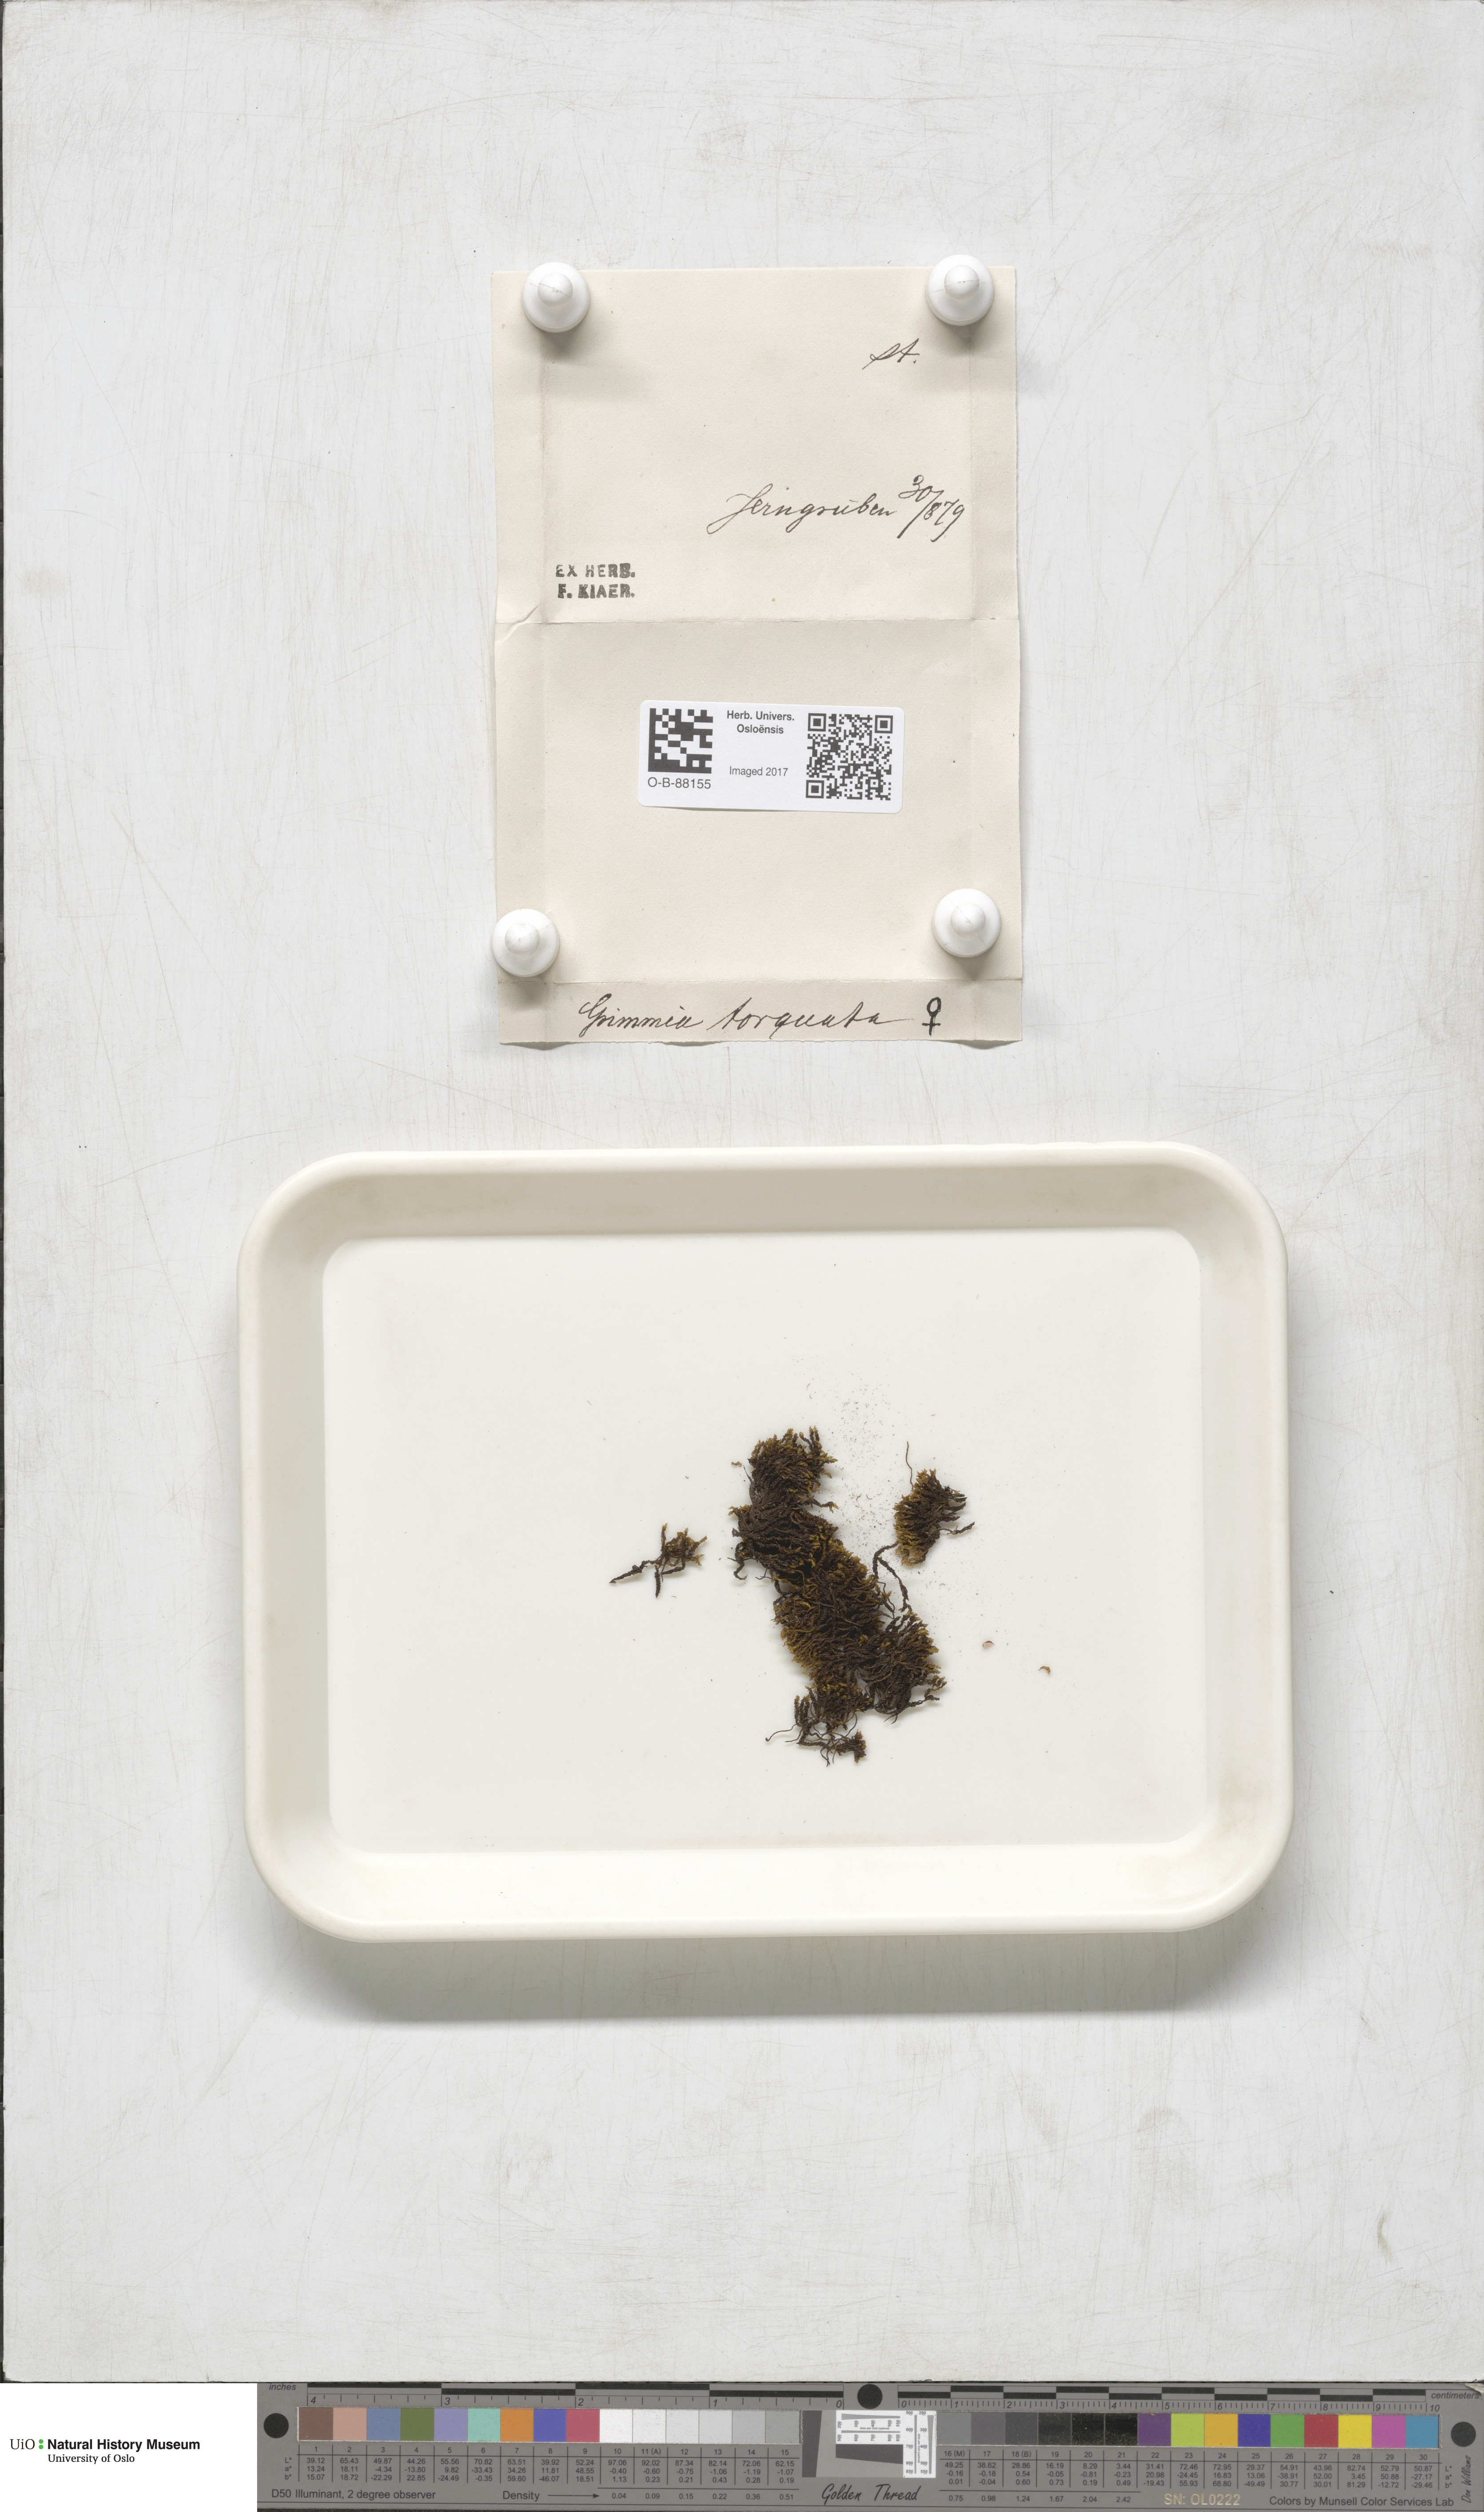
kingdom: Plantae
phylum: Bryophyta
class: Bryopsida
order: Grimmiales
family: Grimmiaceae
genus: Grimmia
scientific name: Grimmia torquata
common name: Twisted grimmia
